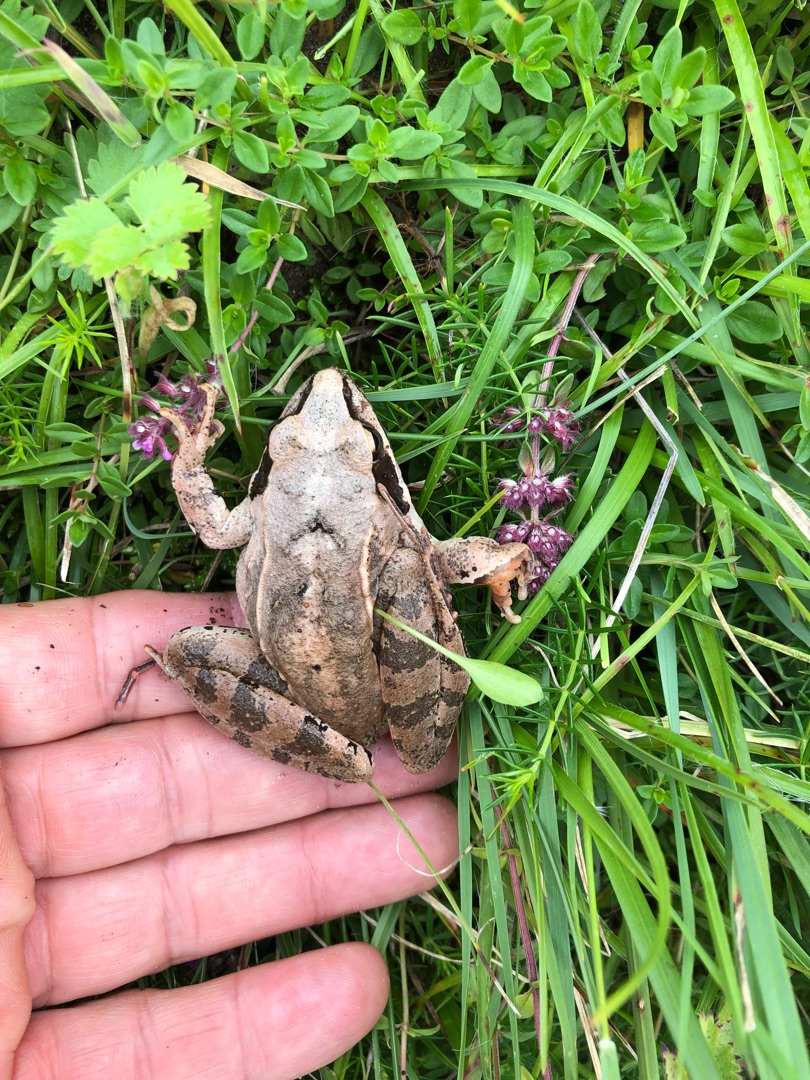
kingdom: Animalia
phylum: Chordata
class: Amphibia
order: Anura
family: Ranidae
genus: Rana
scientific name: Rana dalmatina
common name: Springfrø
